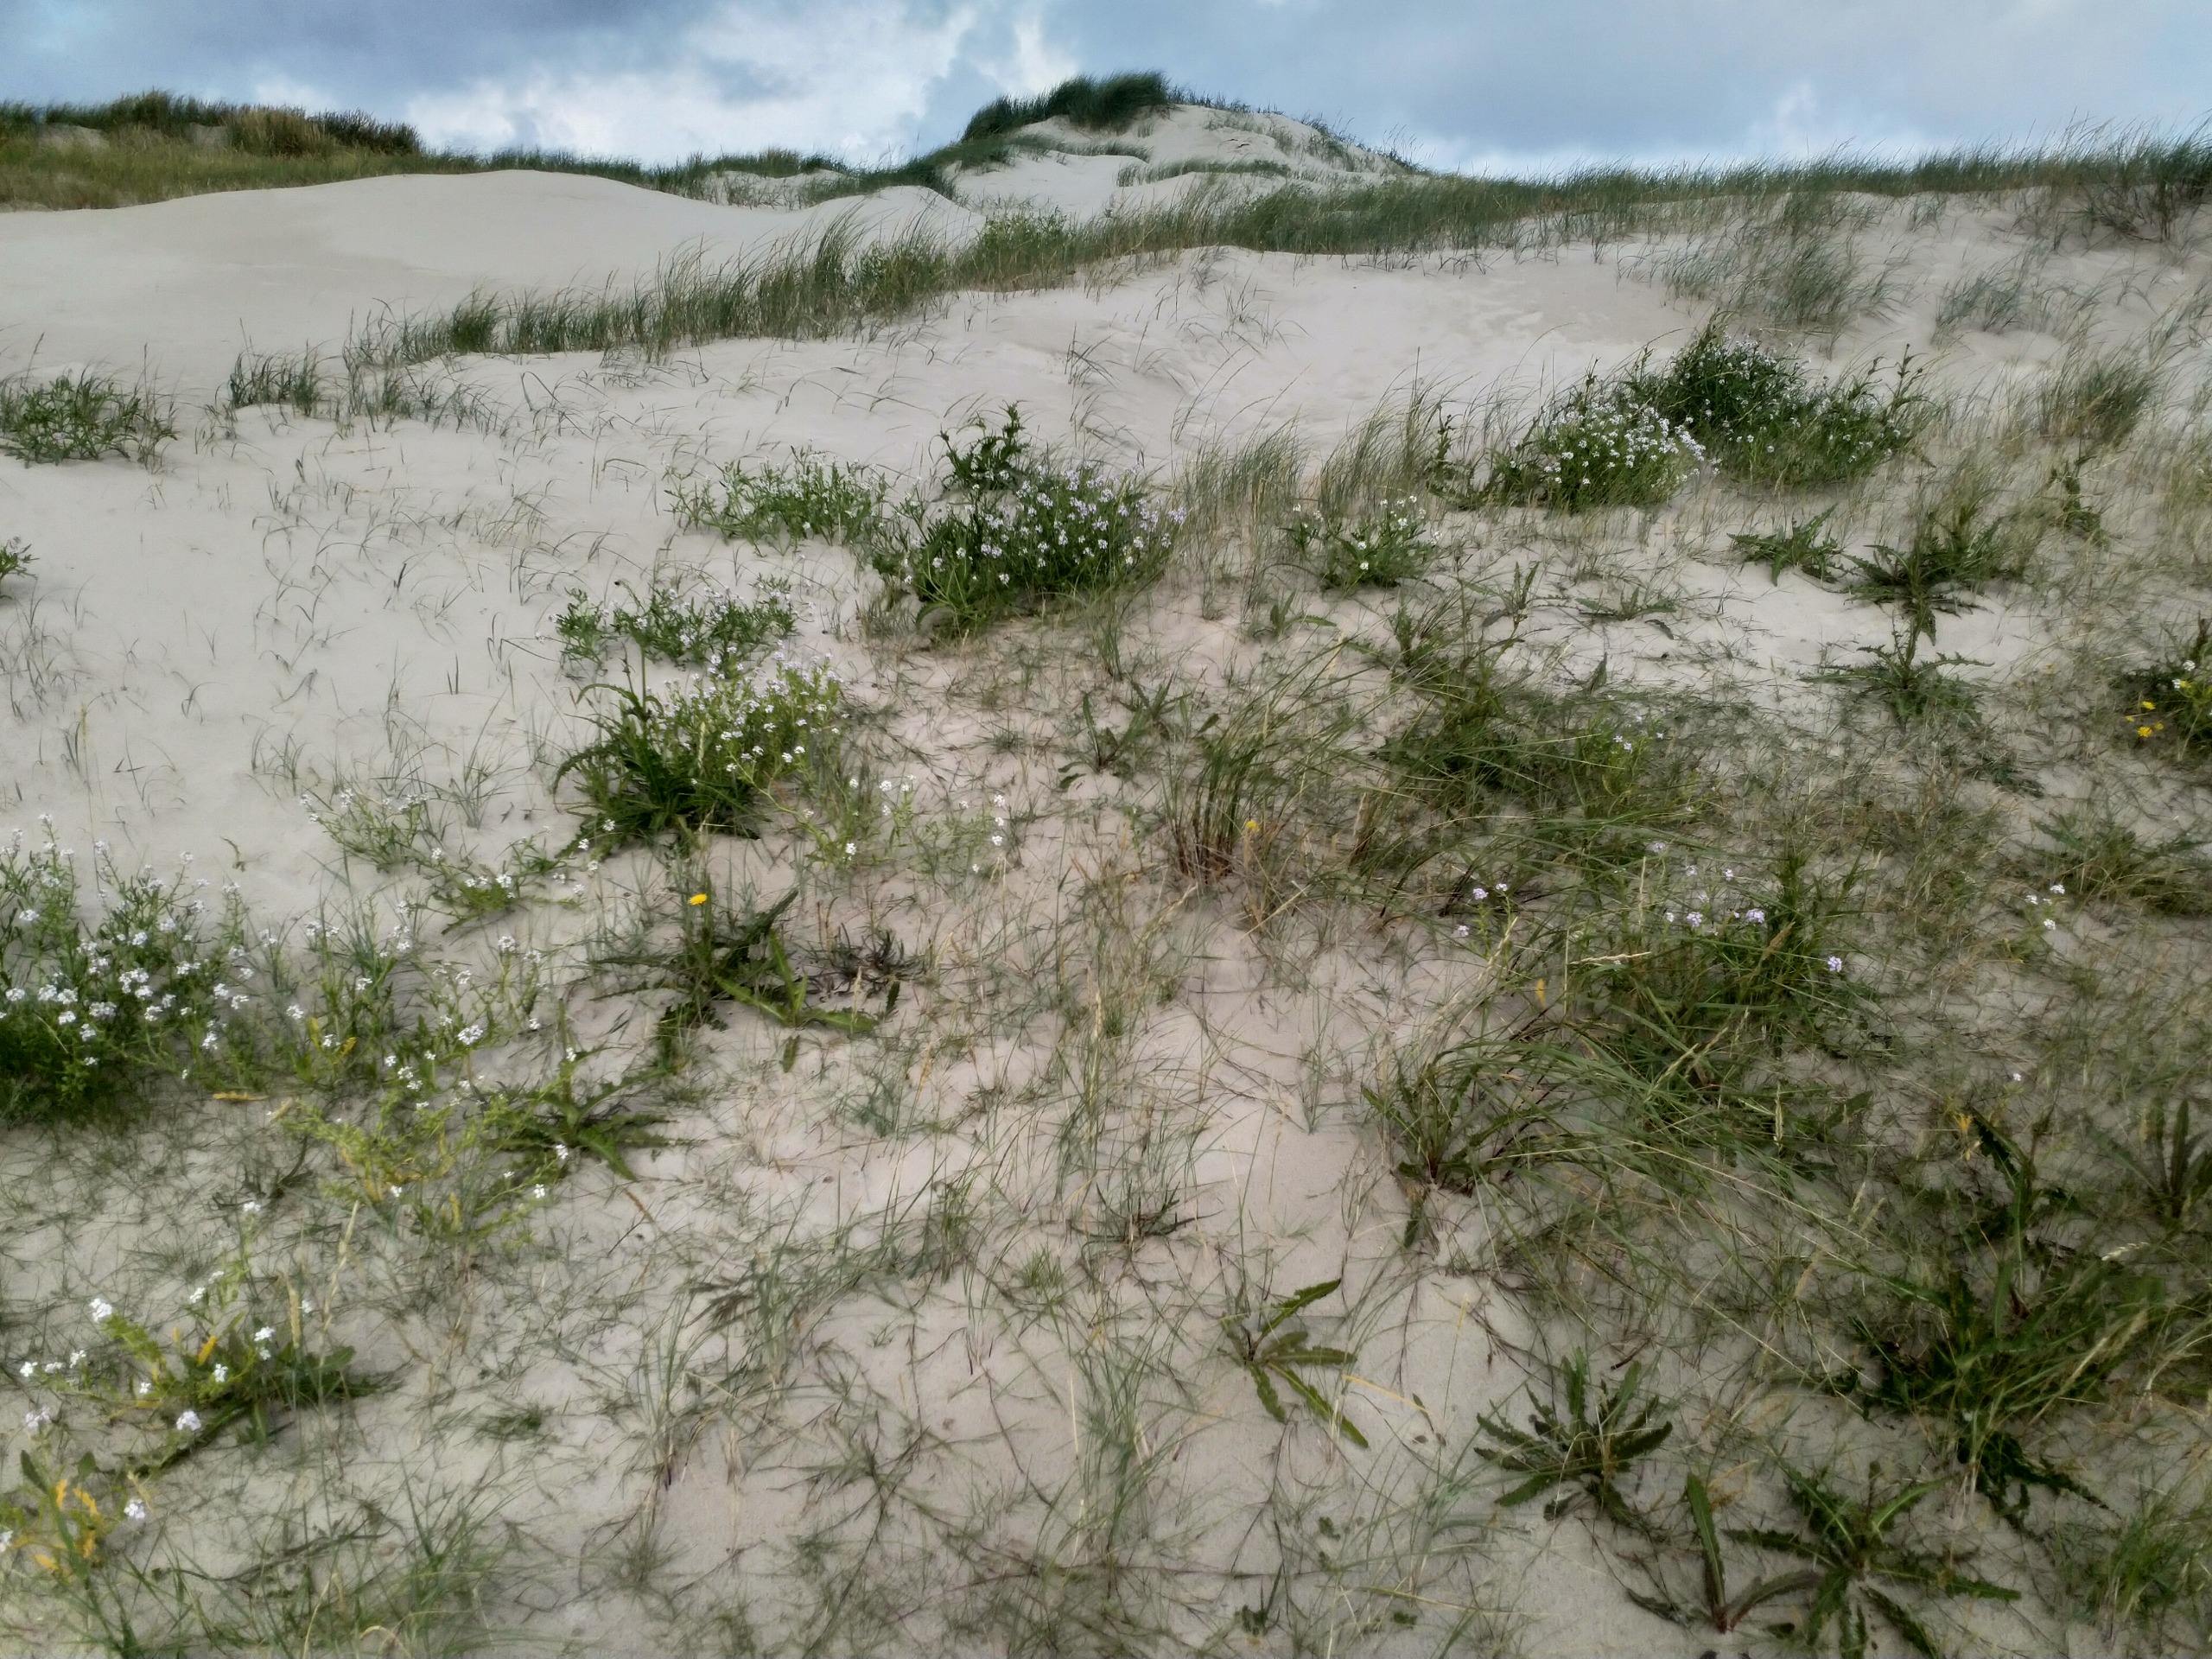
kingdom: Plantae
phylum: Tracheophyta
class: Magnoliopsida
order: Brassicales
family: Brassicaceae
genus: Cakile
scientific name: Cakile maritima
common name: Strandsennep
